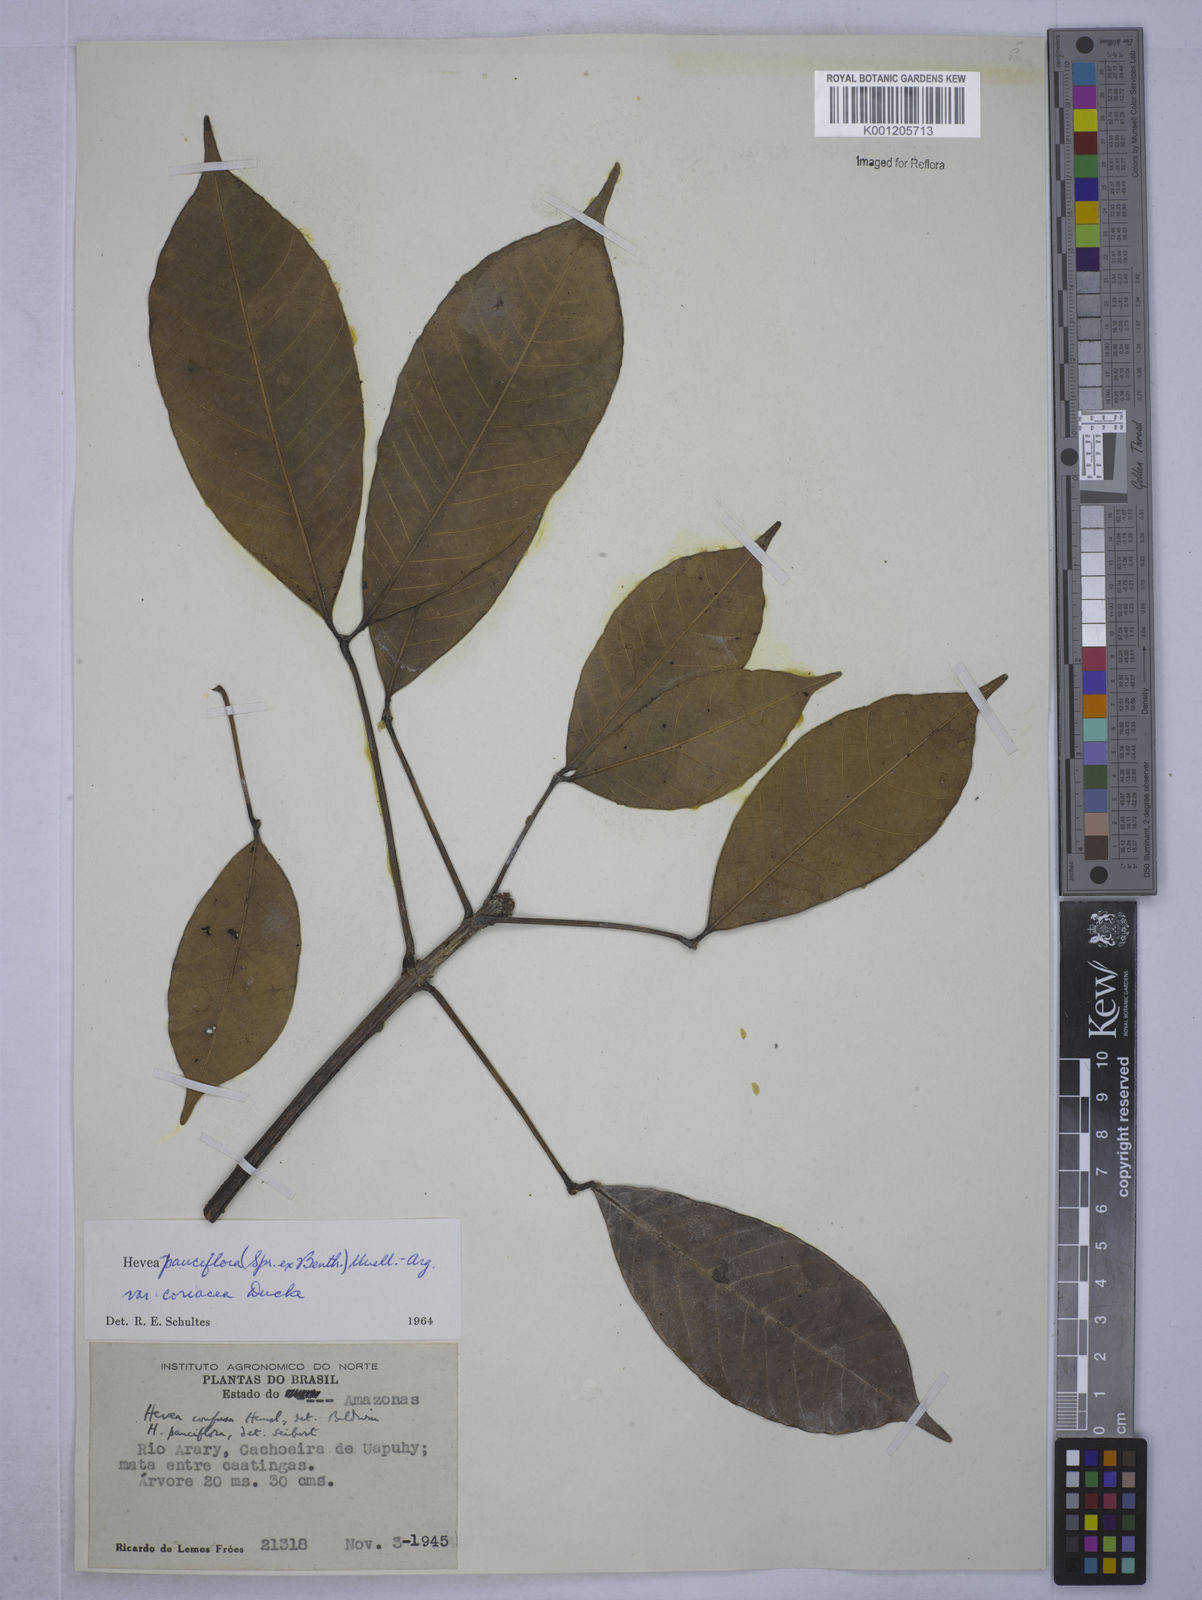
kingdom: Plantae
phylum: Tracheophyta
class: Magnoliopsida
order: Malpighiales
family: Euphorbiaceae
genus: Hevea
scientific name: Hevea pauciflora
